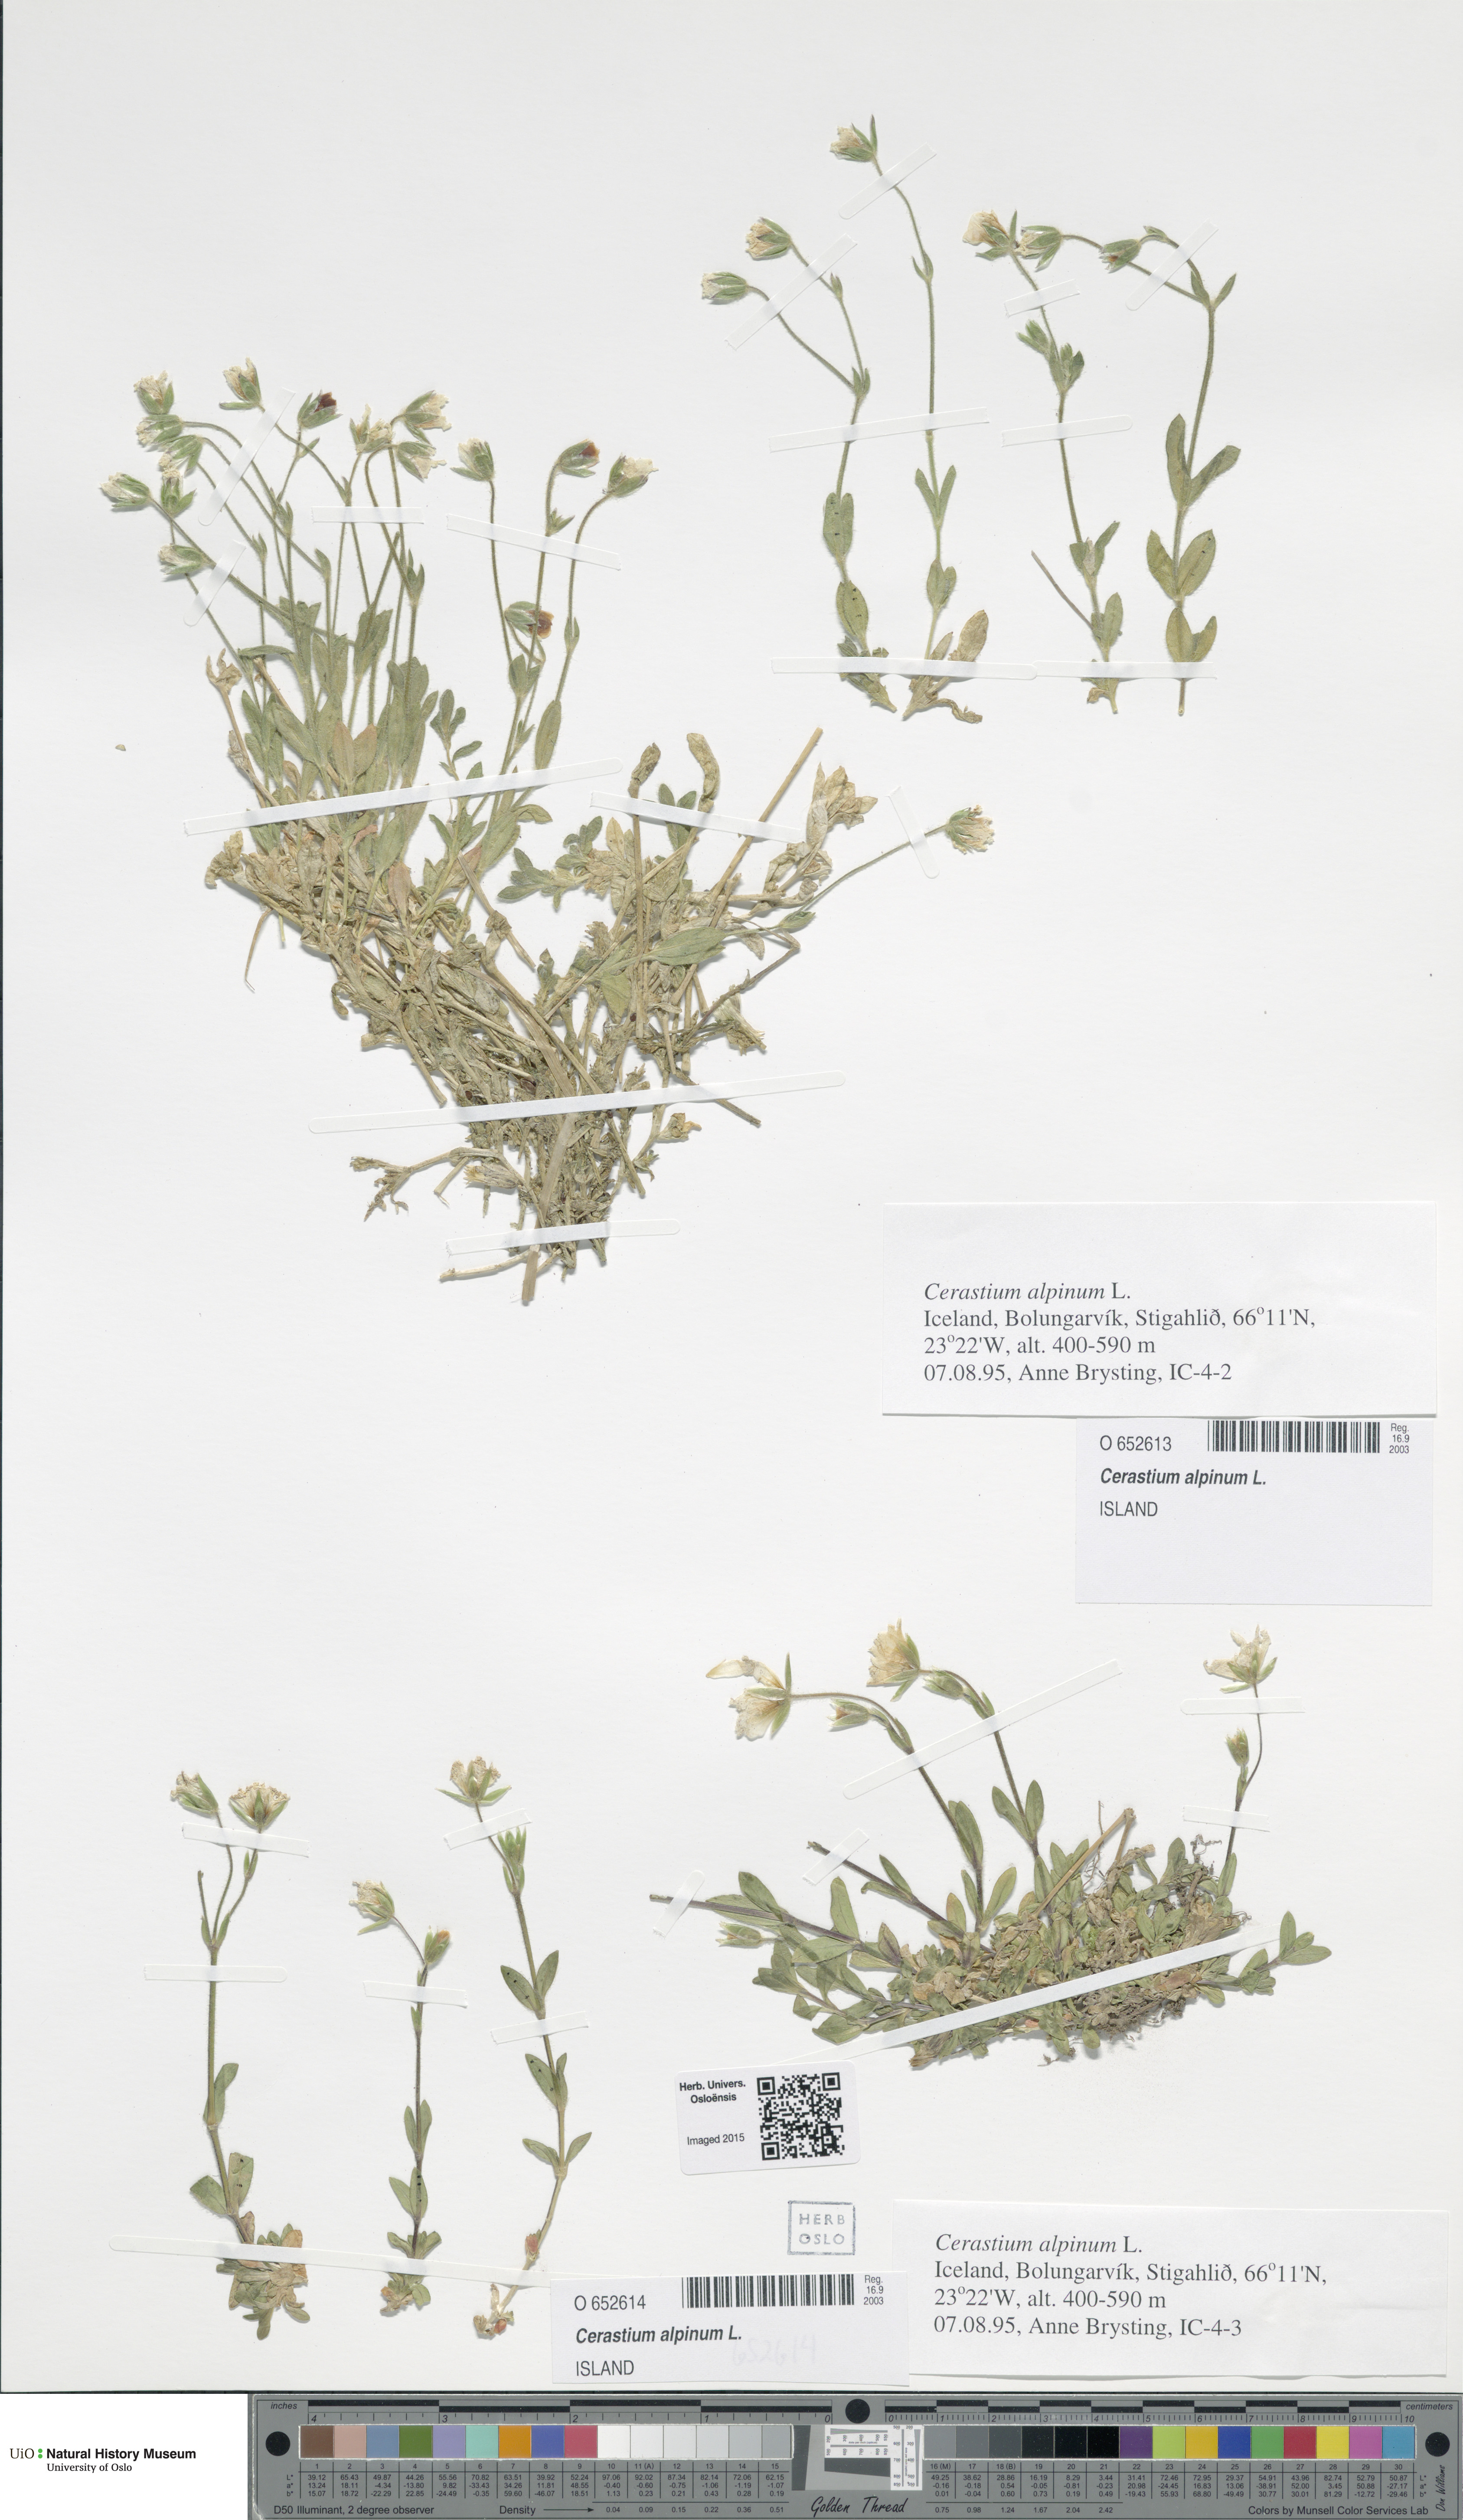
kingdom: Plantae
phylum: Tracheophyta
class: Magnoliopsida
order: Caryophyllales
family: Caryophyllaceae
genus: Cerastium
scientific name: Cerastium alpinum
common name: Alpine mouse-ear
